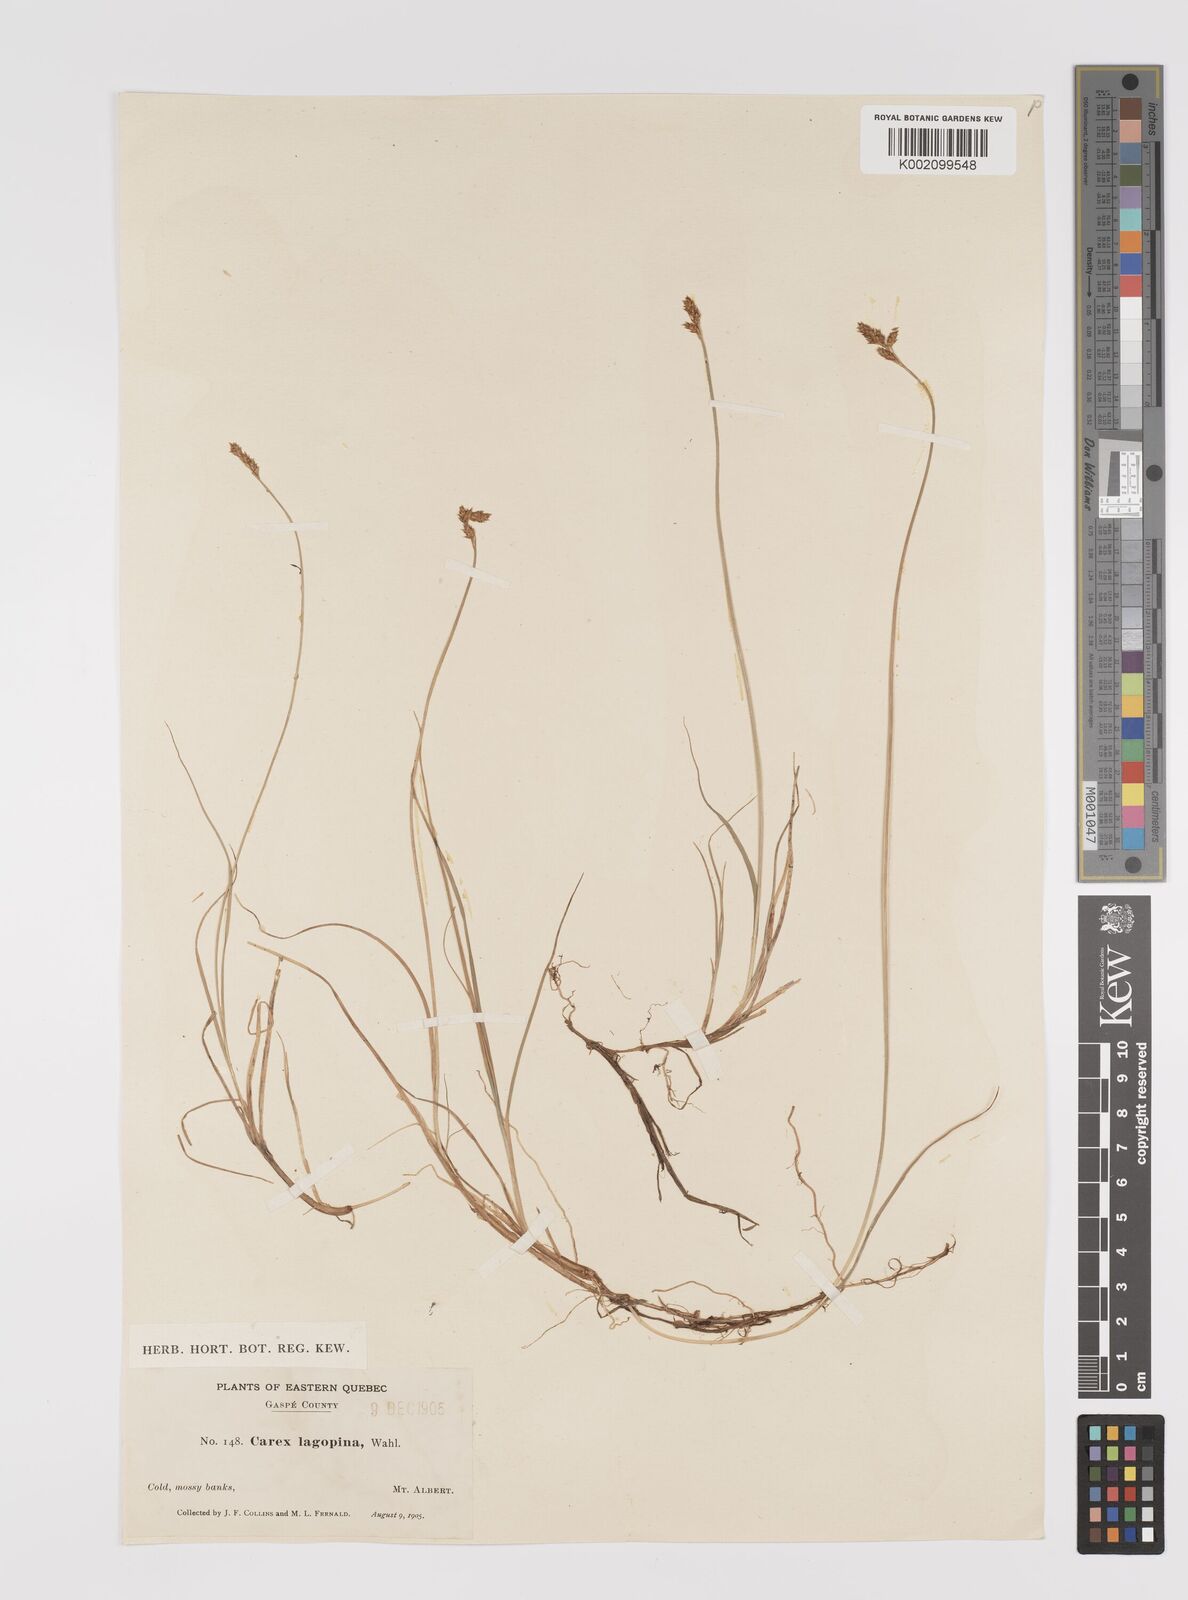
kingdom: Plantae
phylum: Tracheophyta
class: Liliopsida
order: Poales
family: Cyperaceae
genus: Carex
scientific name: Carex lachenalii
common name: Hare's-foot sedge
